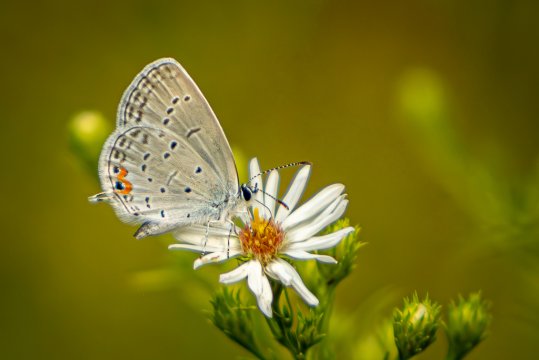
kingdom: Animalia
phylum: Arthropoda
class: Insecta
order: Lepidoptera
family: Lycaenidae
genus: Elkalyce
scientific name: Elkalyce comyntas
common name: Eastern Tailed-Blue
